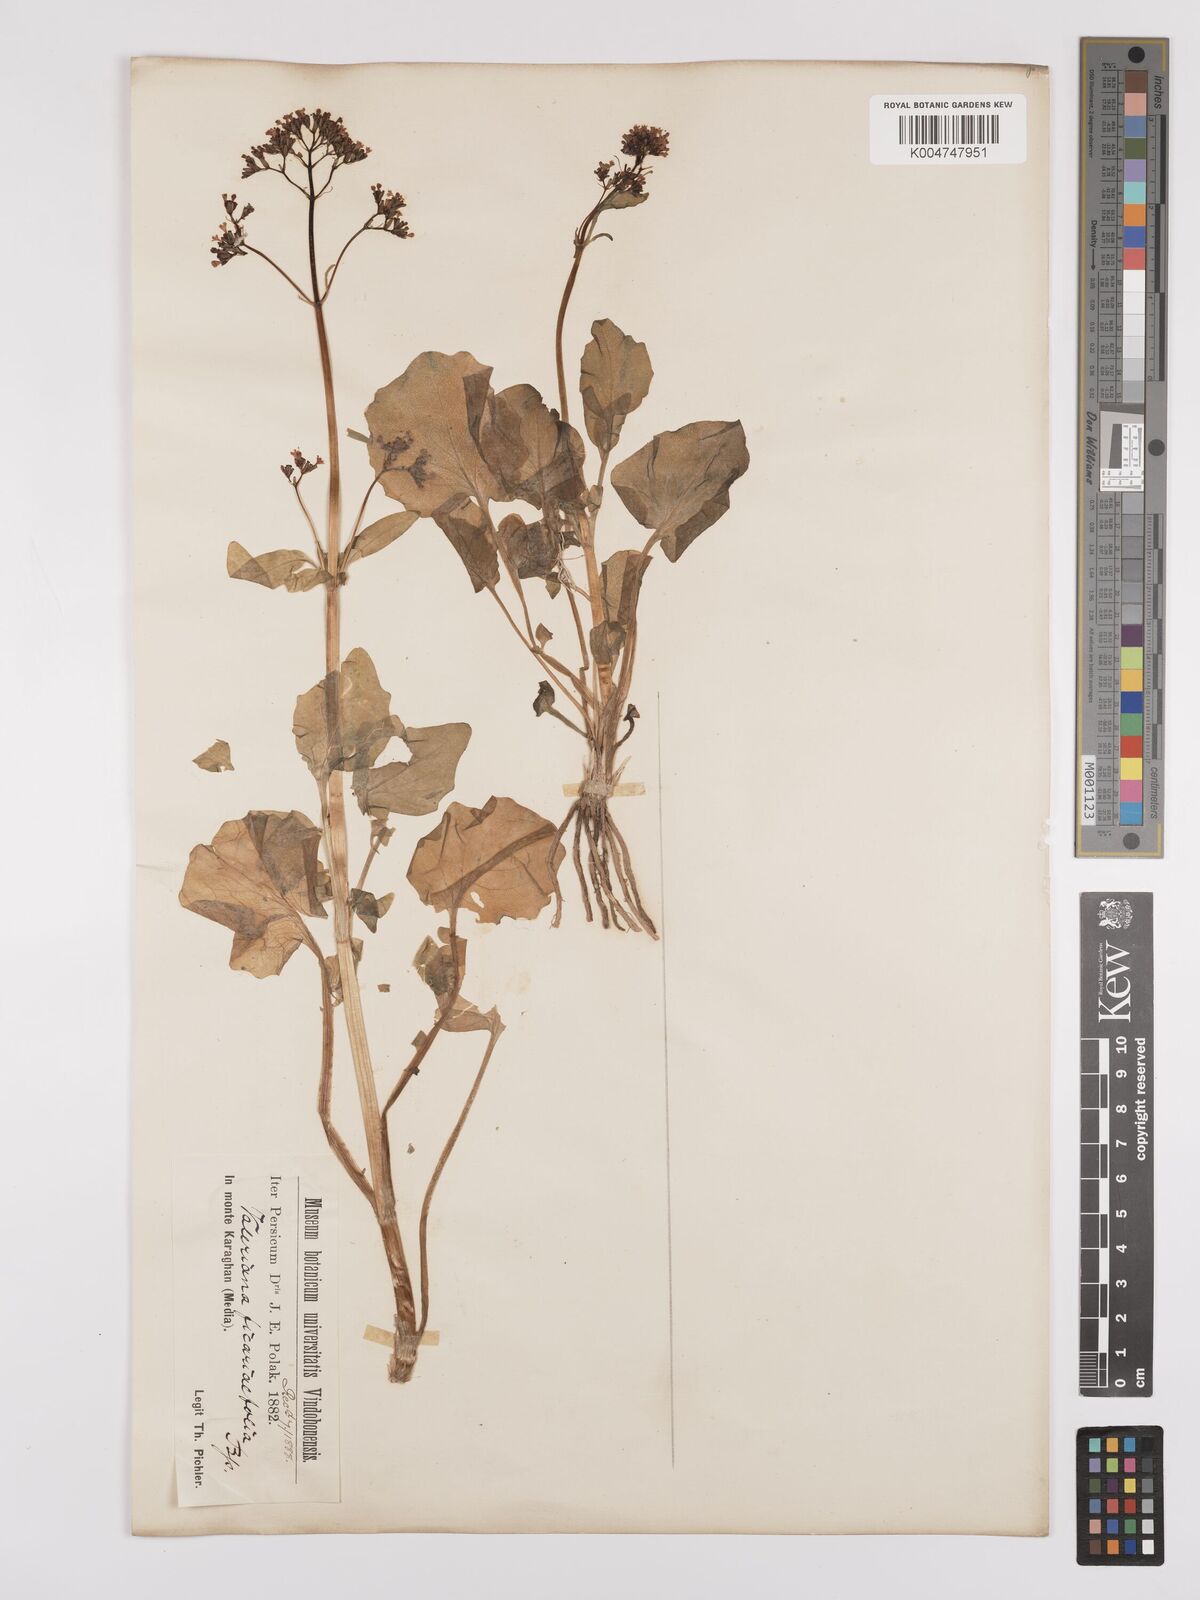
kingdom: Plantae
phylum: Tracheophyta
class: Magnoliopsida
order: Dipsacales
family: Caprifoliaceae
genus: Valeriana
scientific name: Valeriana ficariifolia
